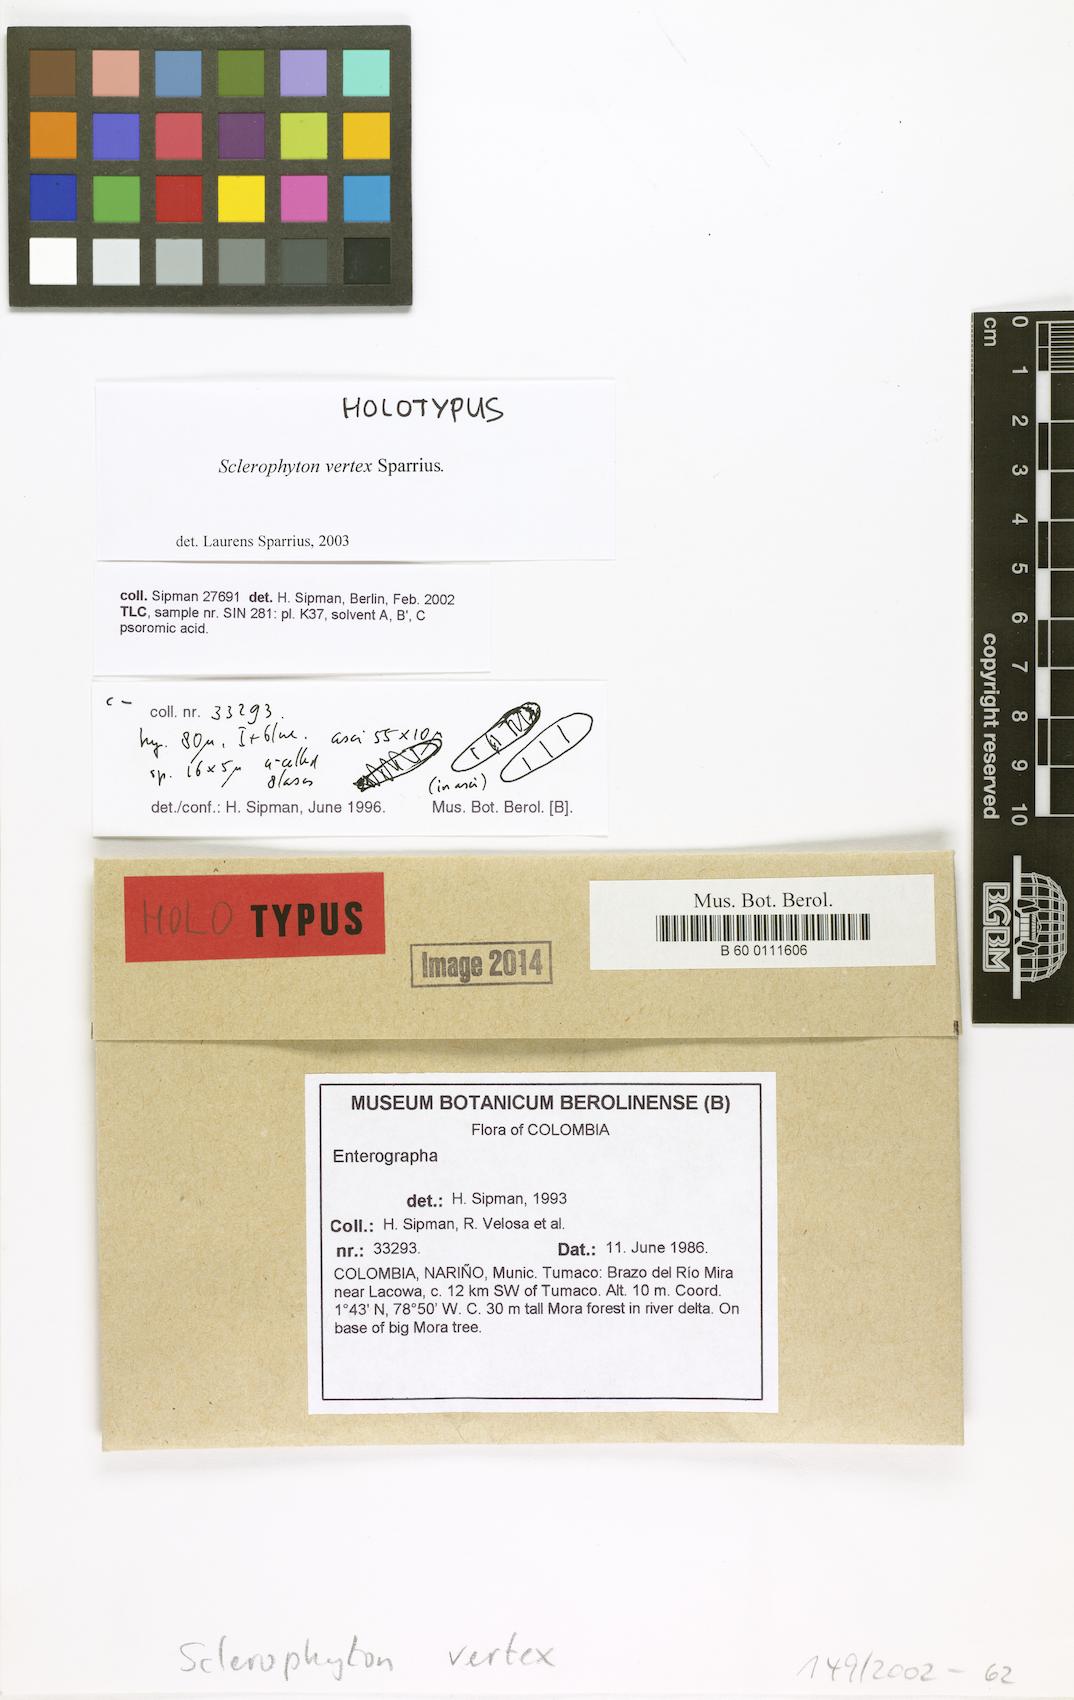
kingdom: Fungi
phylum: Ascomycota
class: Arthoniomycetes
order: Arthoniales
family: Opegraphaceae
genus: Sclerophyton
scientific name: Sclerophyton vertex
